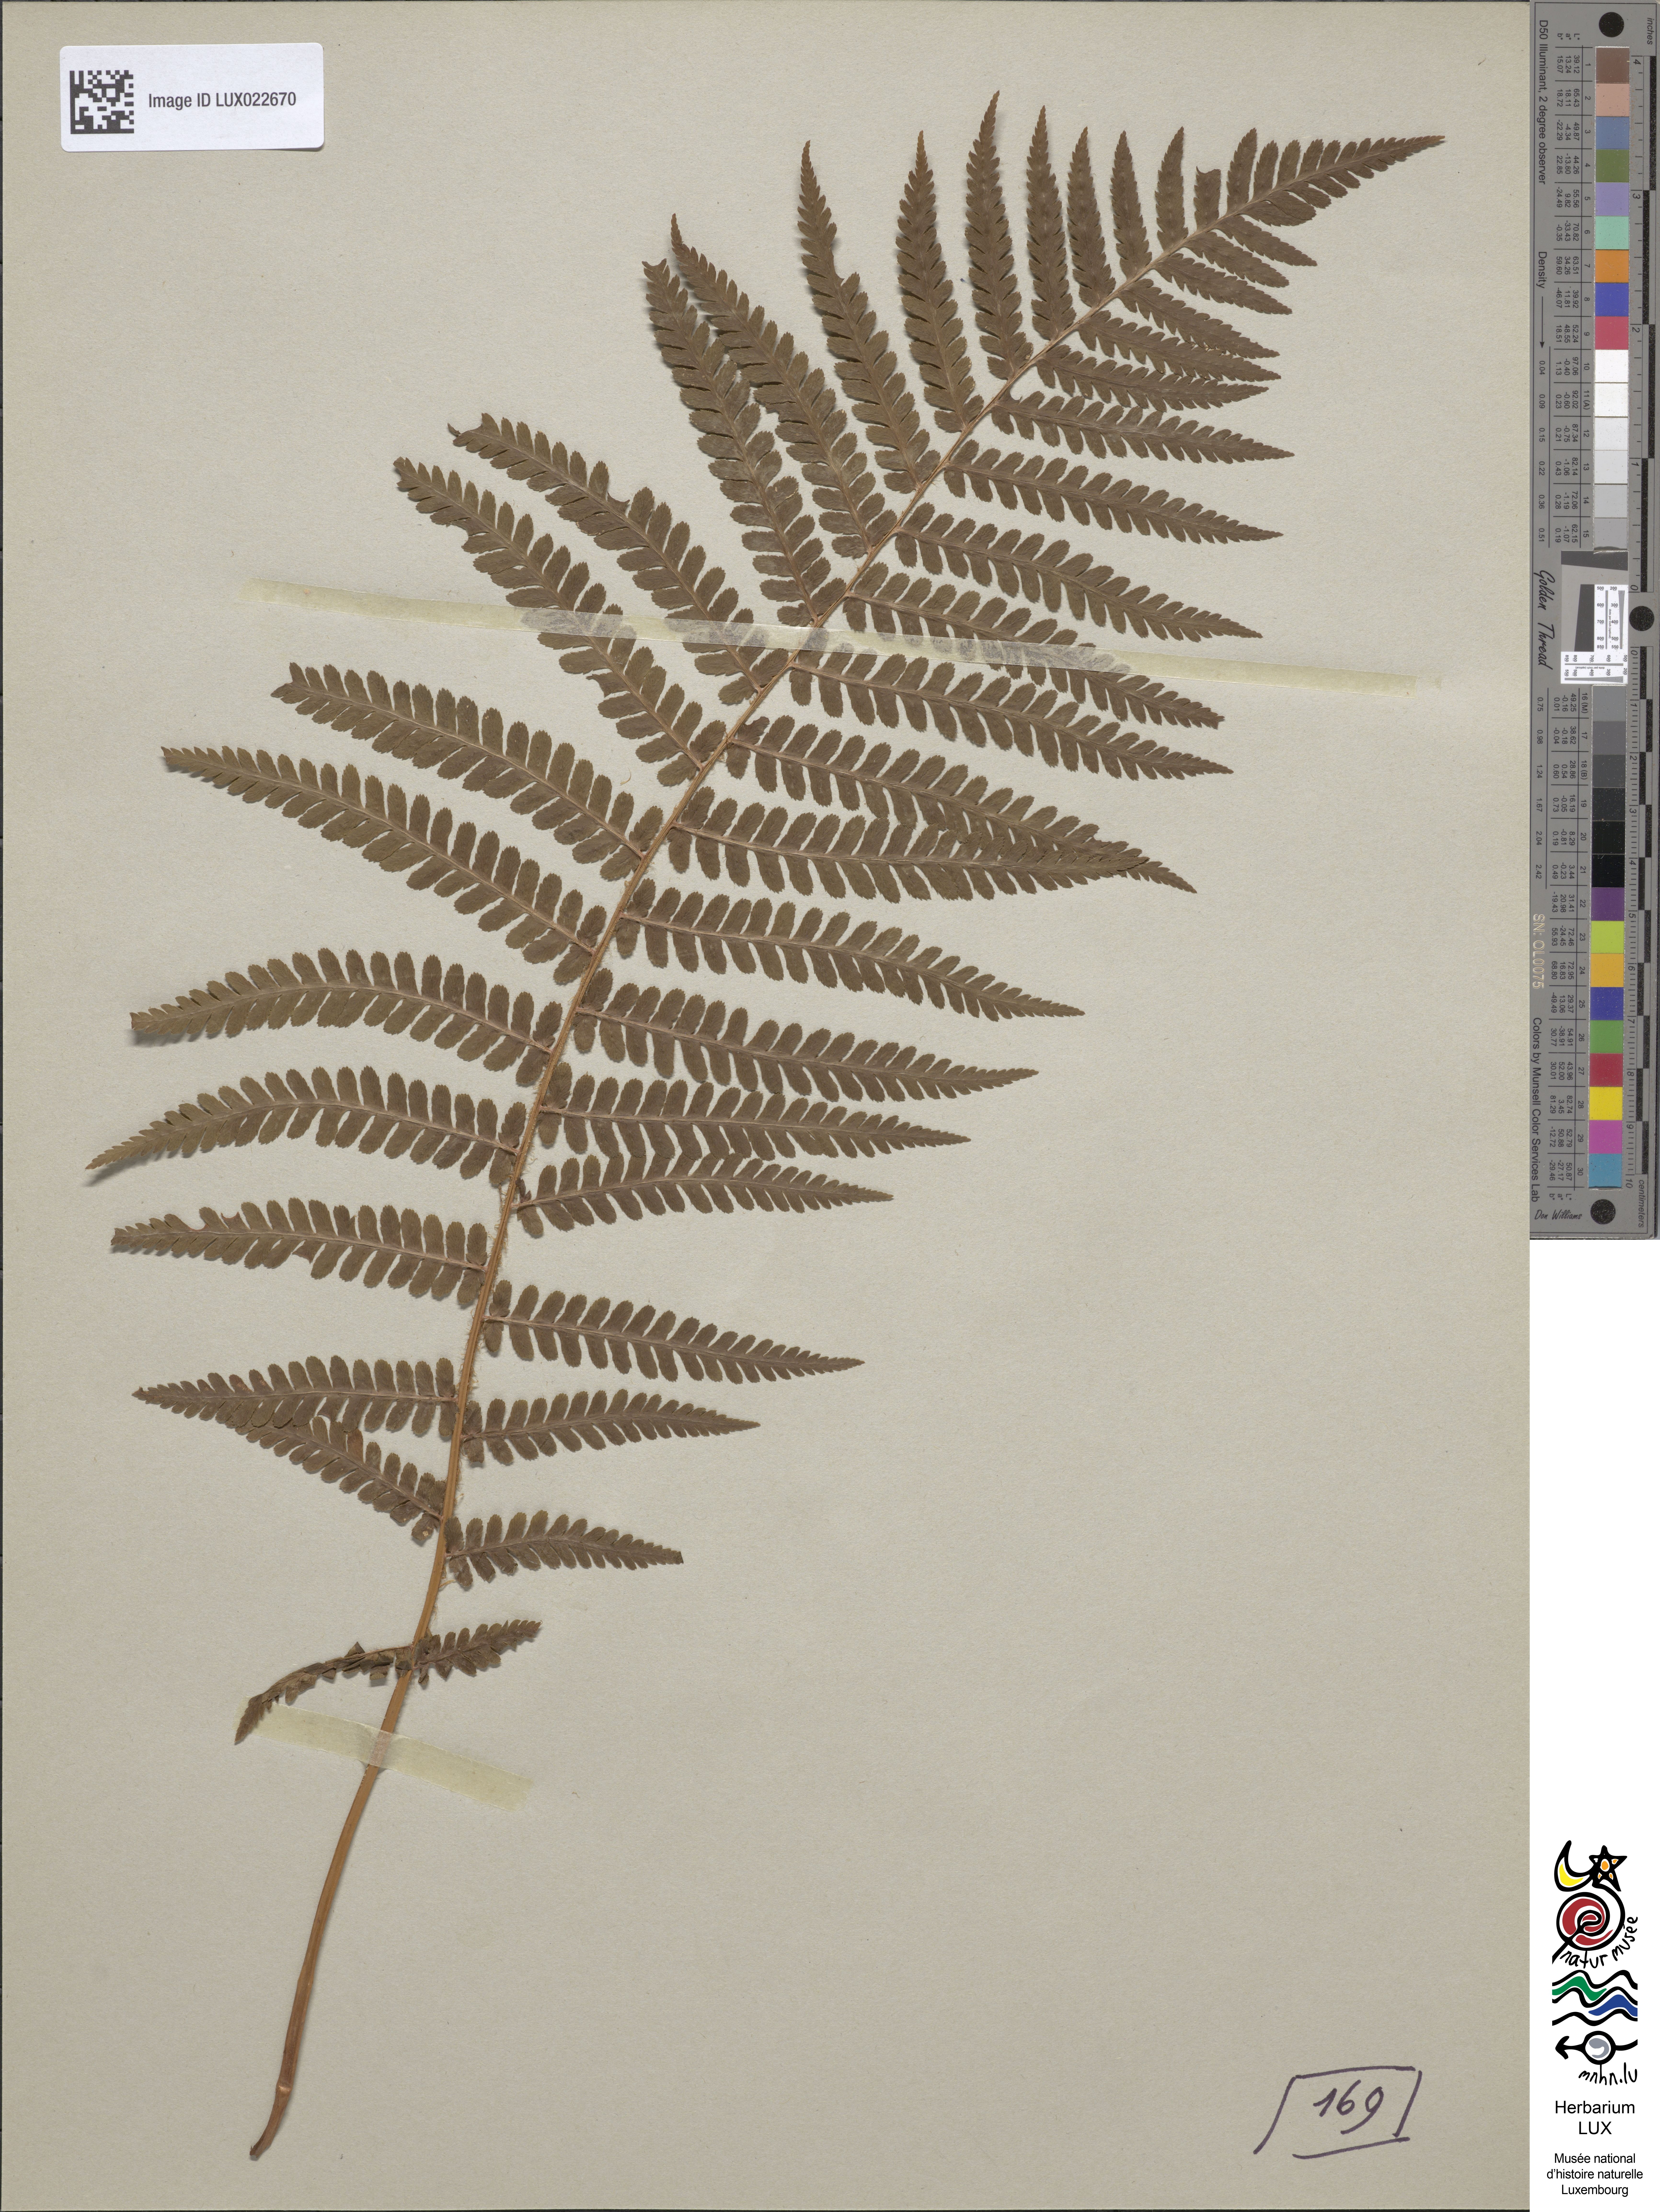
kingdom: Plantae
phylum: Tracheophyta
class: Polypodiopsida
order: Polypodiales
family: Dryopteridaceae
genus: Dryopteris
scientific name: Dryopteris filix-mas
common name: Male fern
